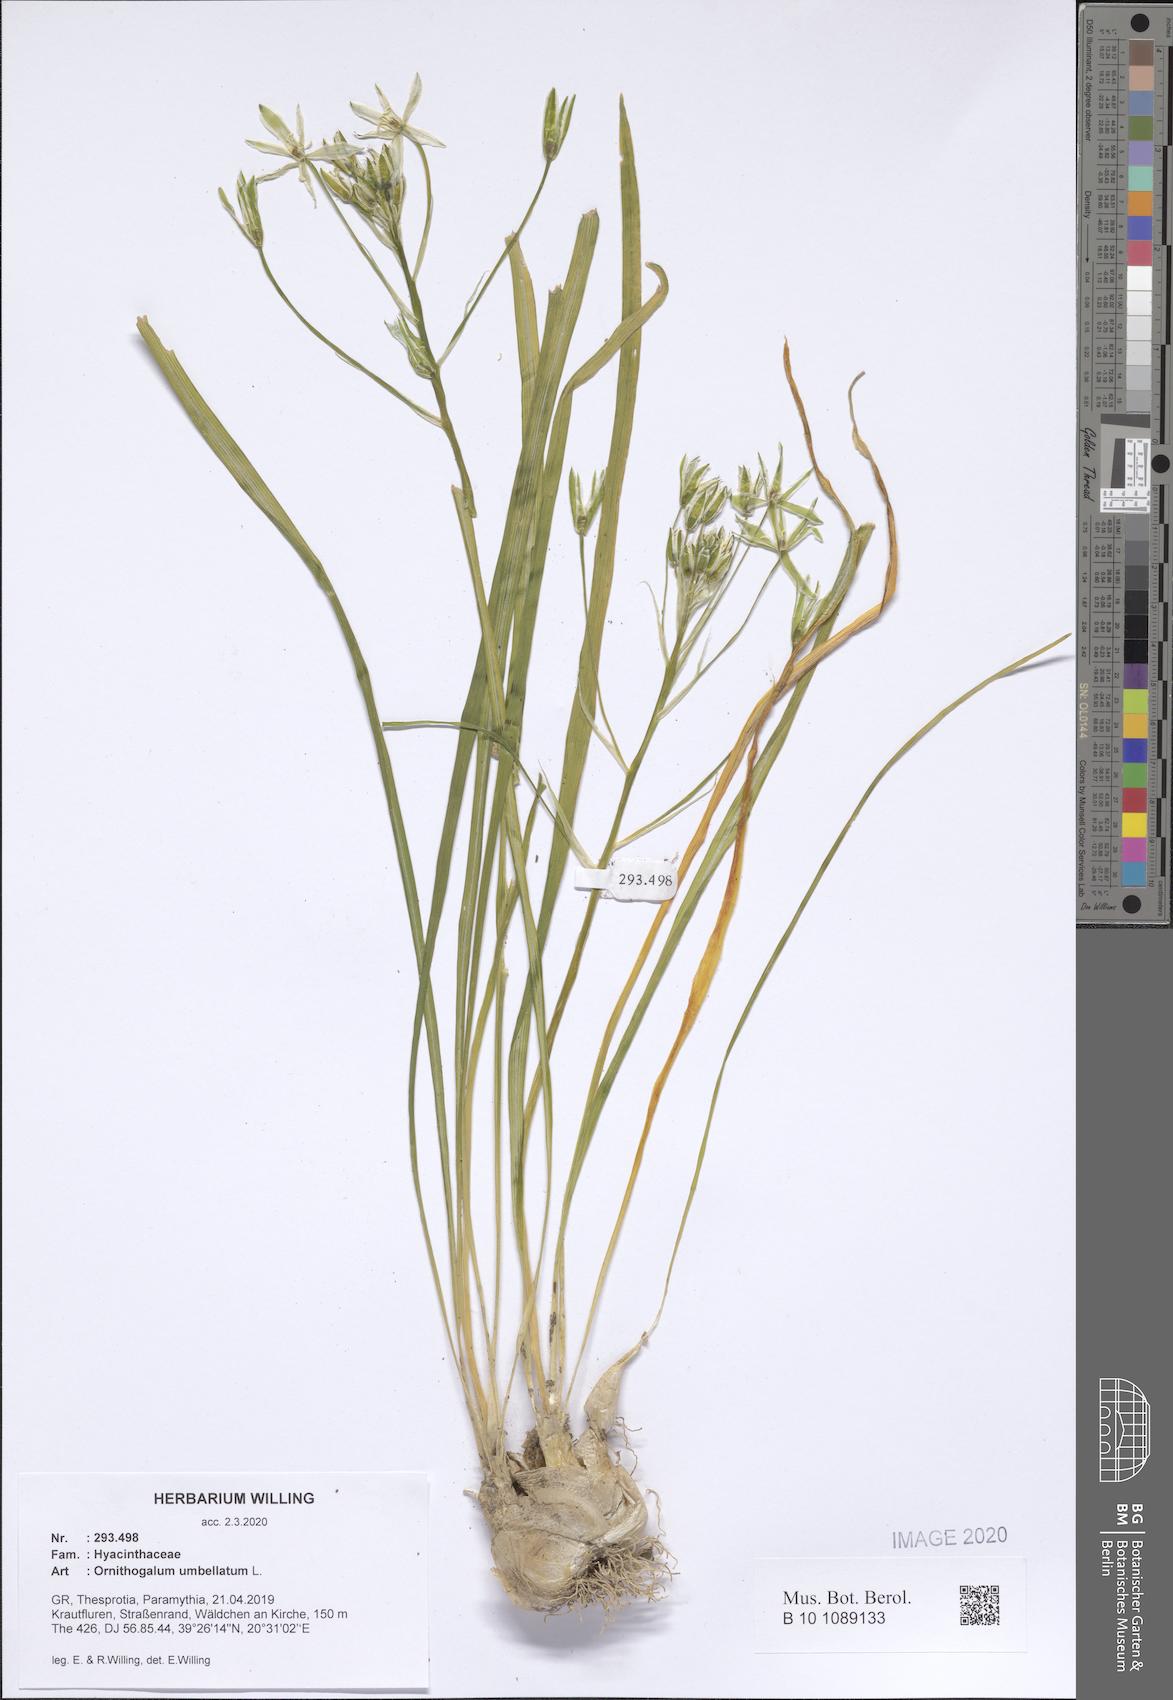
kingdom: Plantae
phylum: Tracheophyta
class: Liliopsida
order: Asparagales
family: Asparagaceae
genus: Ornithogalum
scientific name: Ornithogalum umbellatum
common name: Garden star-of-bethlehem
